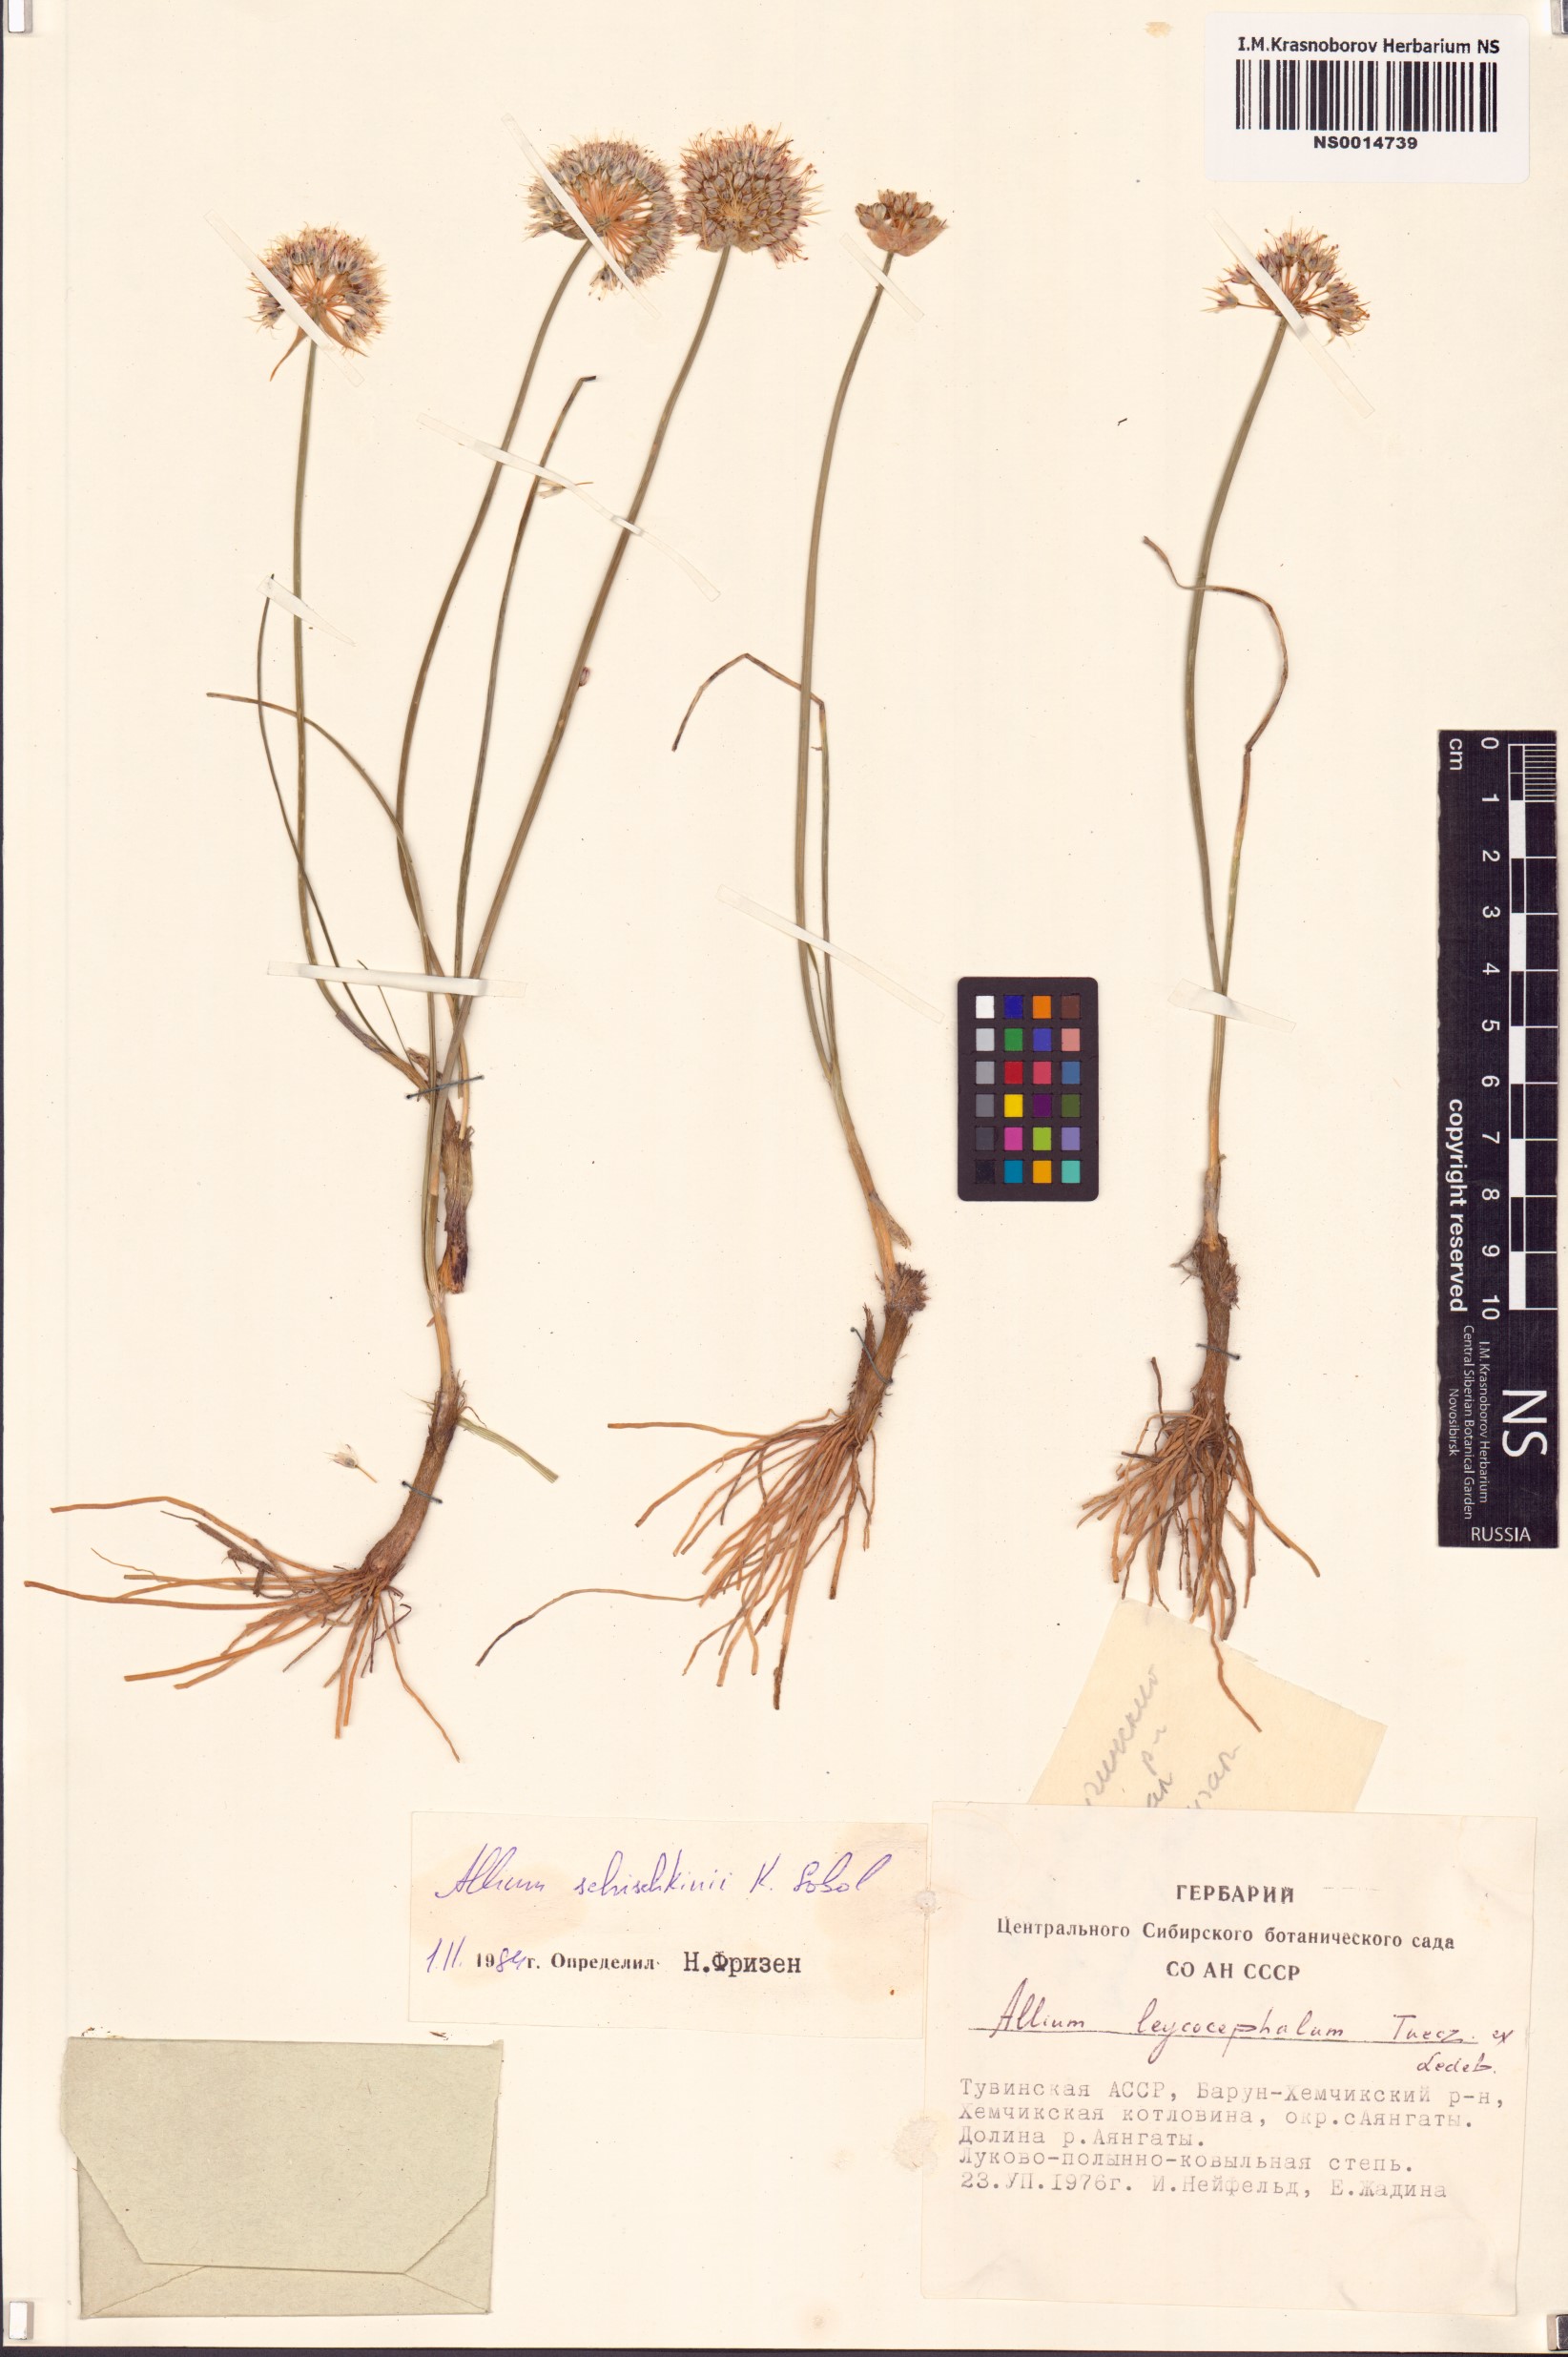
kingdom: Plantae
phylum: Tracheophyta
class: Liliopsida
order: Asparagales
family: Amaryllidaceae
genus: Allium
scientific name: Allium schischkinii
